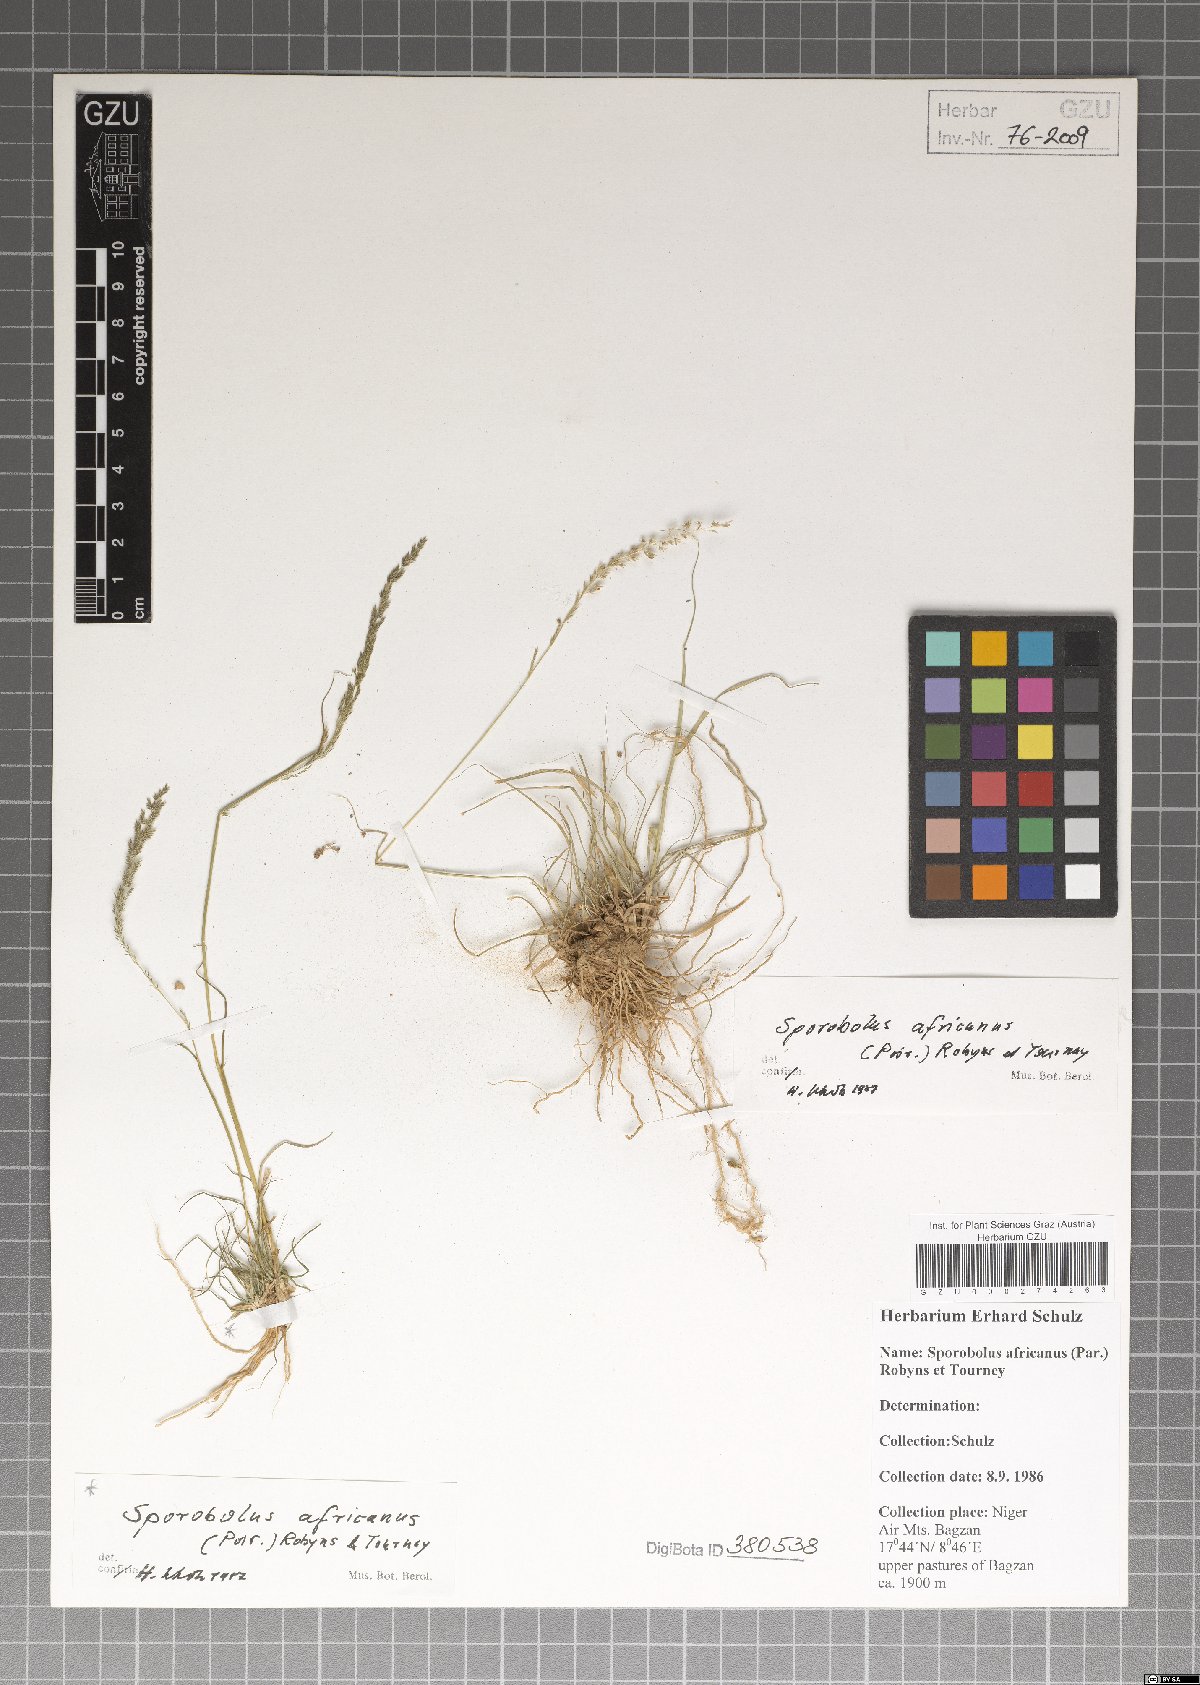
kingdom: Plantae
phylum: Tracheophyta
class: Liliopsida
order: Poales
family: Poaceae
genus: Sporobolus
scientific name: Sporobolus africanus
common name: African dropseed
